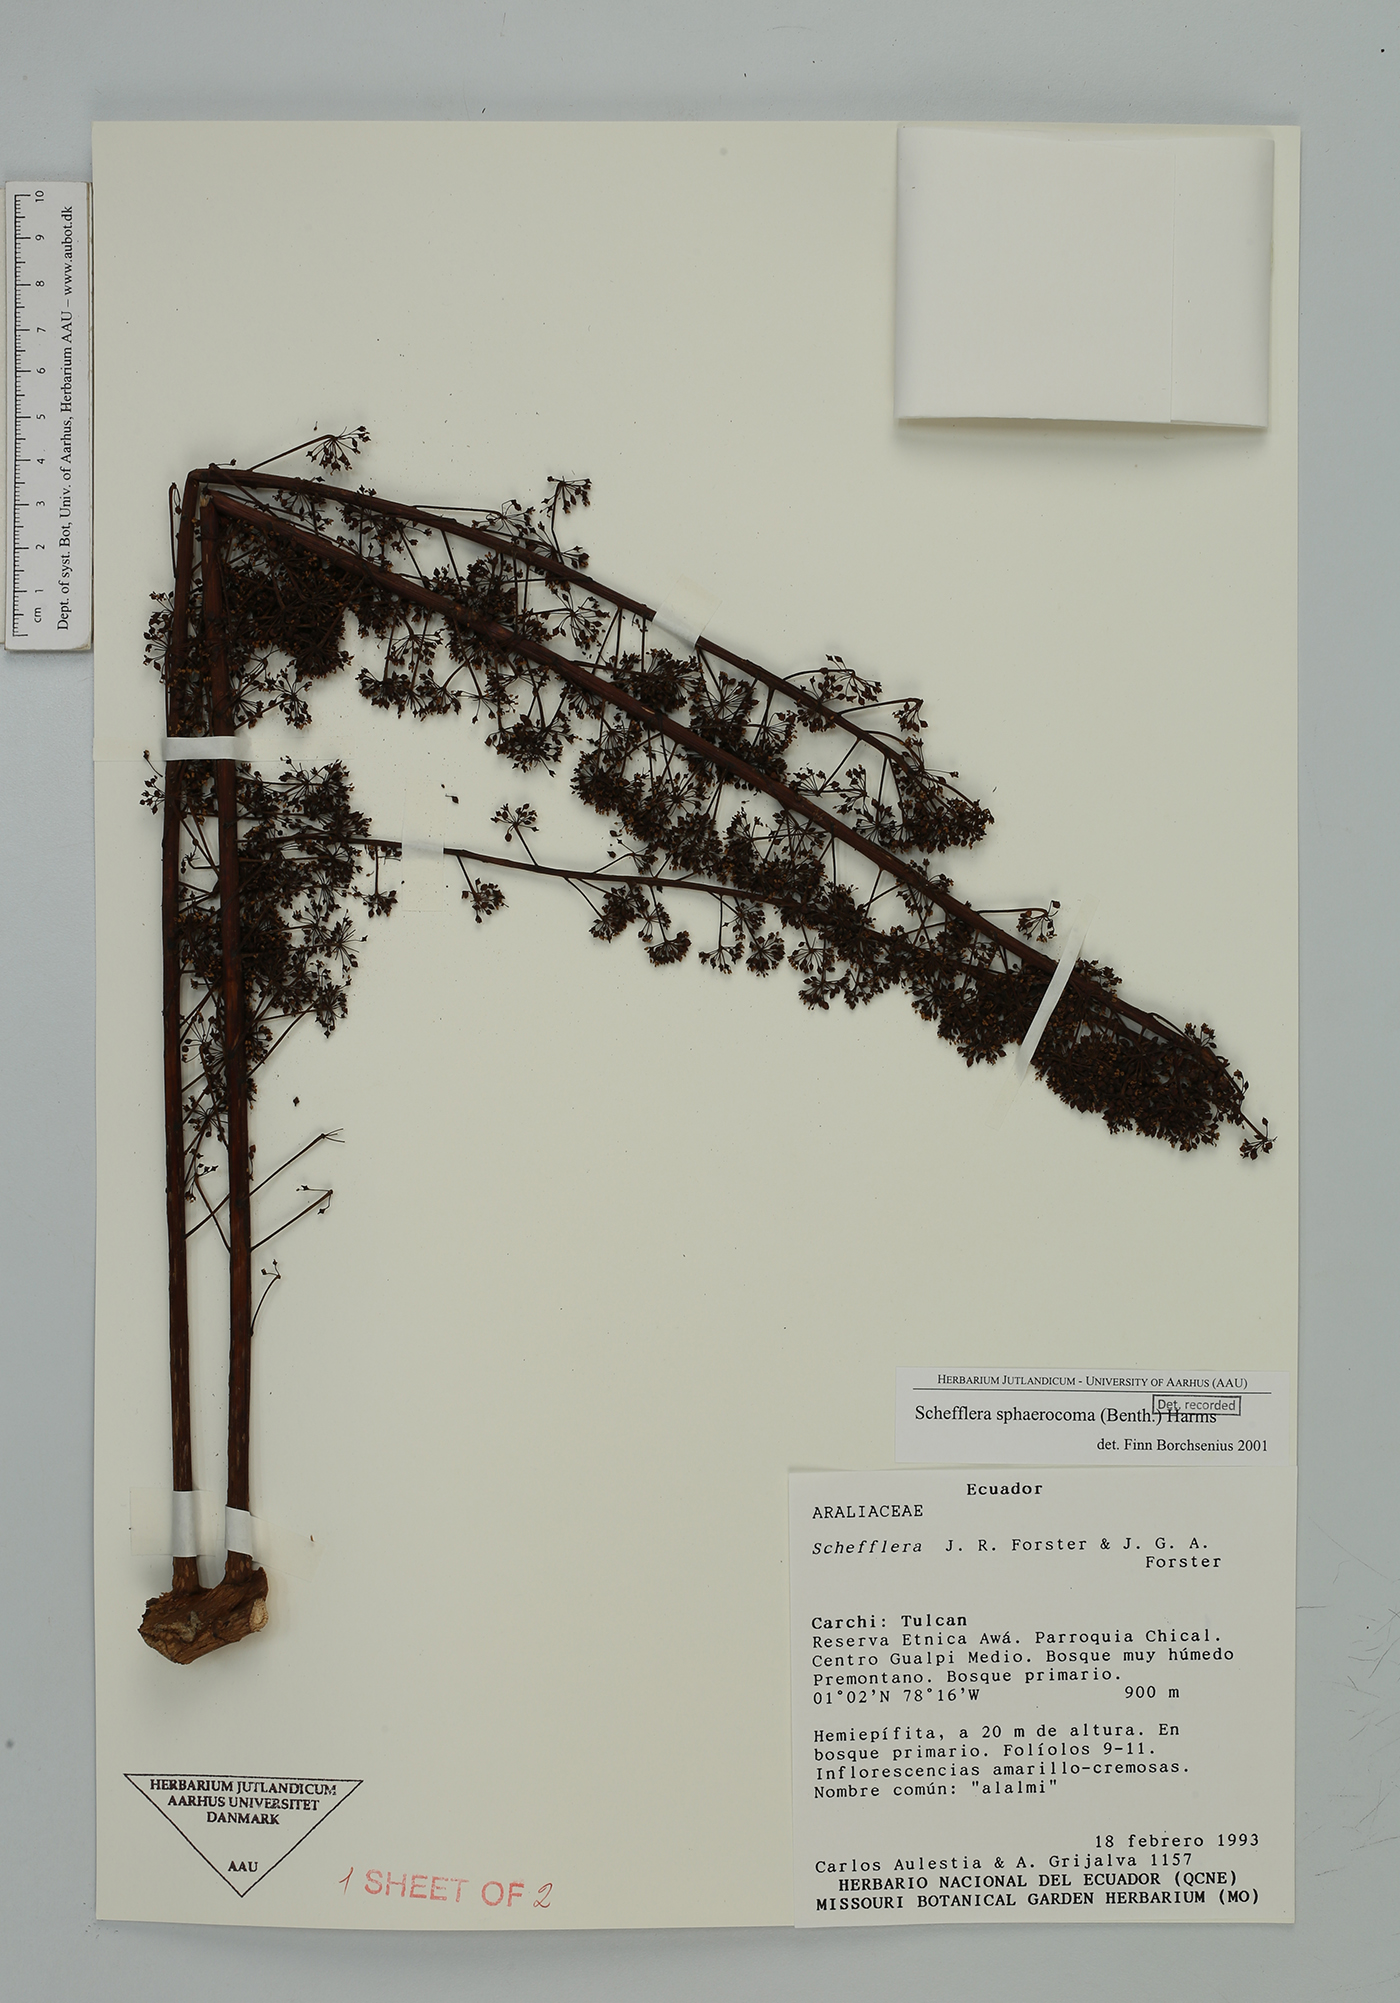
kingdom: Plantae
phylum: Tracheophyta
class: Magnoliopsida
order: Apiales
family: Araliaceae
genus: Sciodaphyllum
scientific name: Sciodaphyllum sphaerocoma
